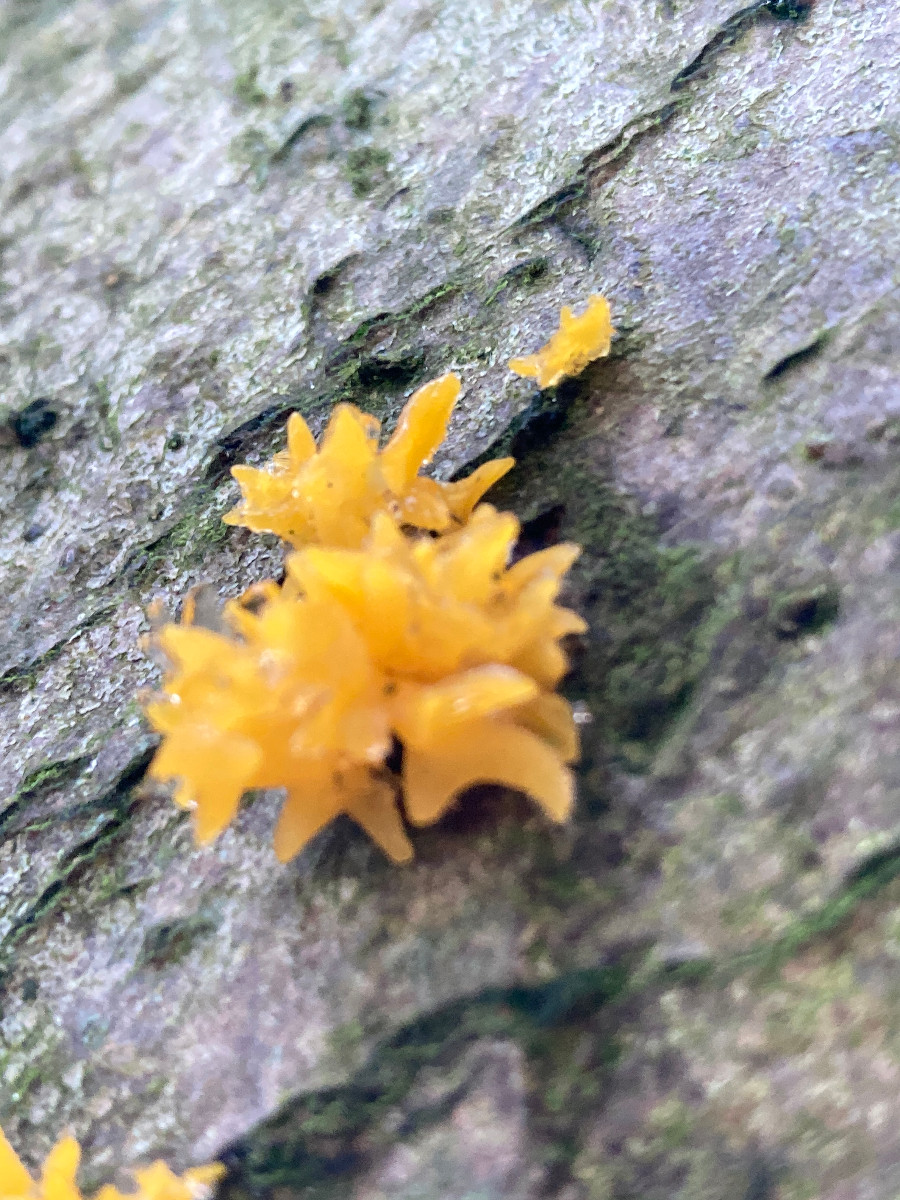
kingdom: Fungi
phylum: Basidiomycota
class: Dacrymycetes
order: Dacrymycetales
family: Dacrymycetaceae
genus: Calocera
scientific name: Calocera cornea
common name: liden guldgaffel
